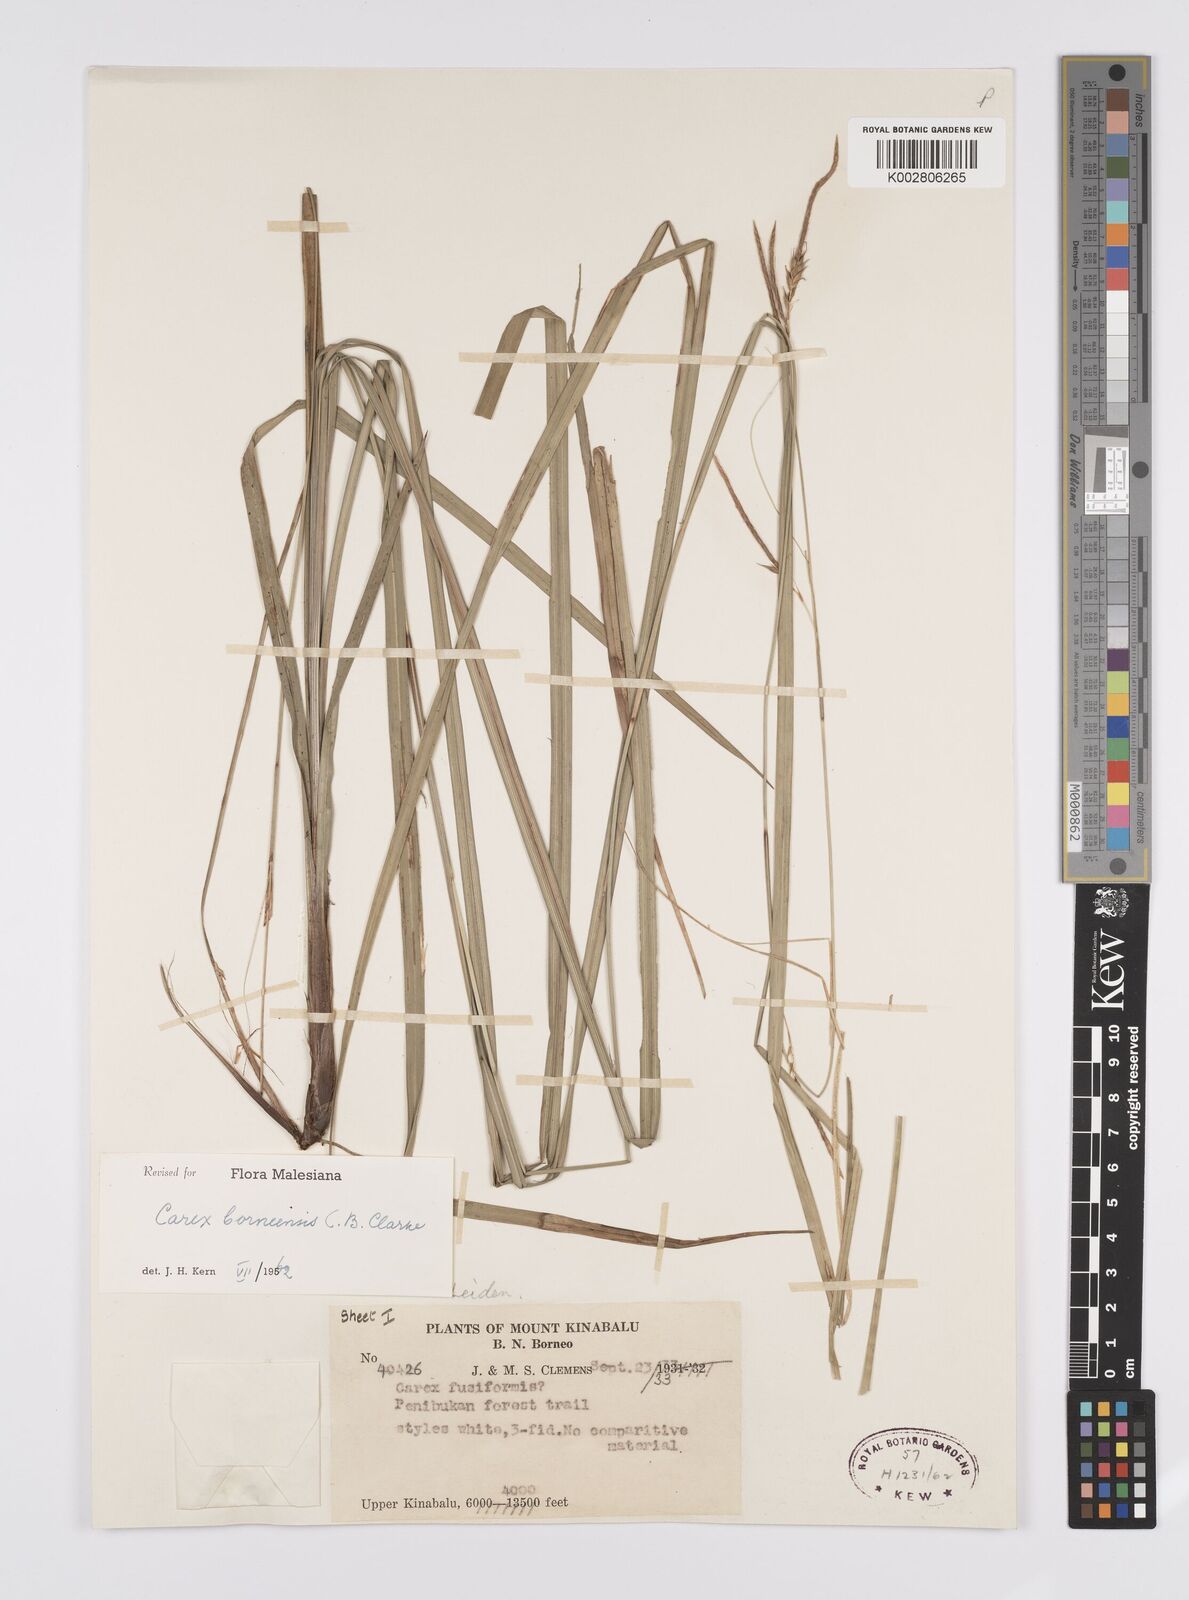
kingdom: Plantae
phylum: Tracheophyta
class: Liliopsida
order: Poales
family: Cyperaceae
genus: Carex
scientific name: Carex perakensis
